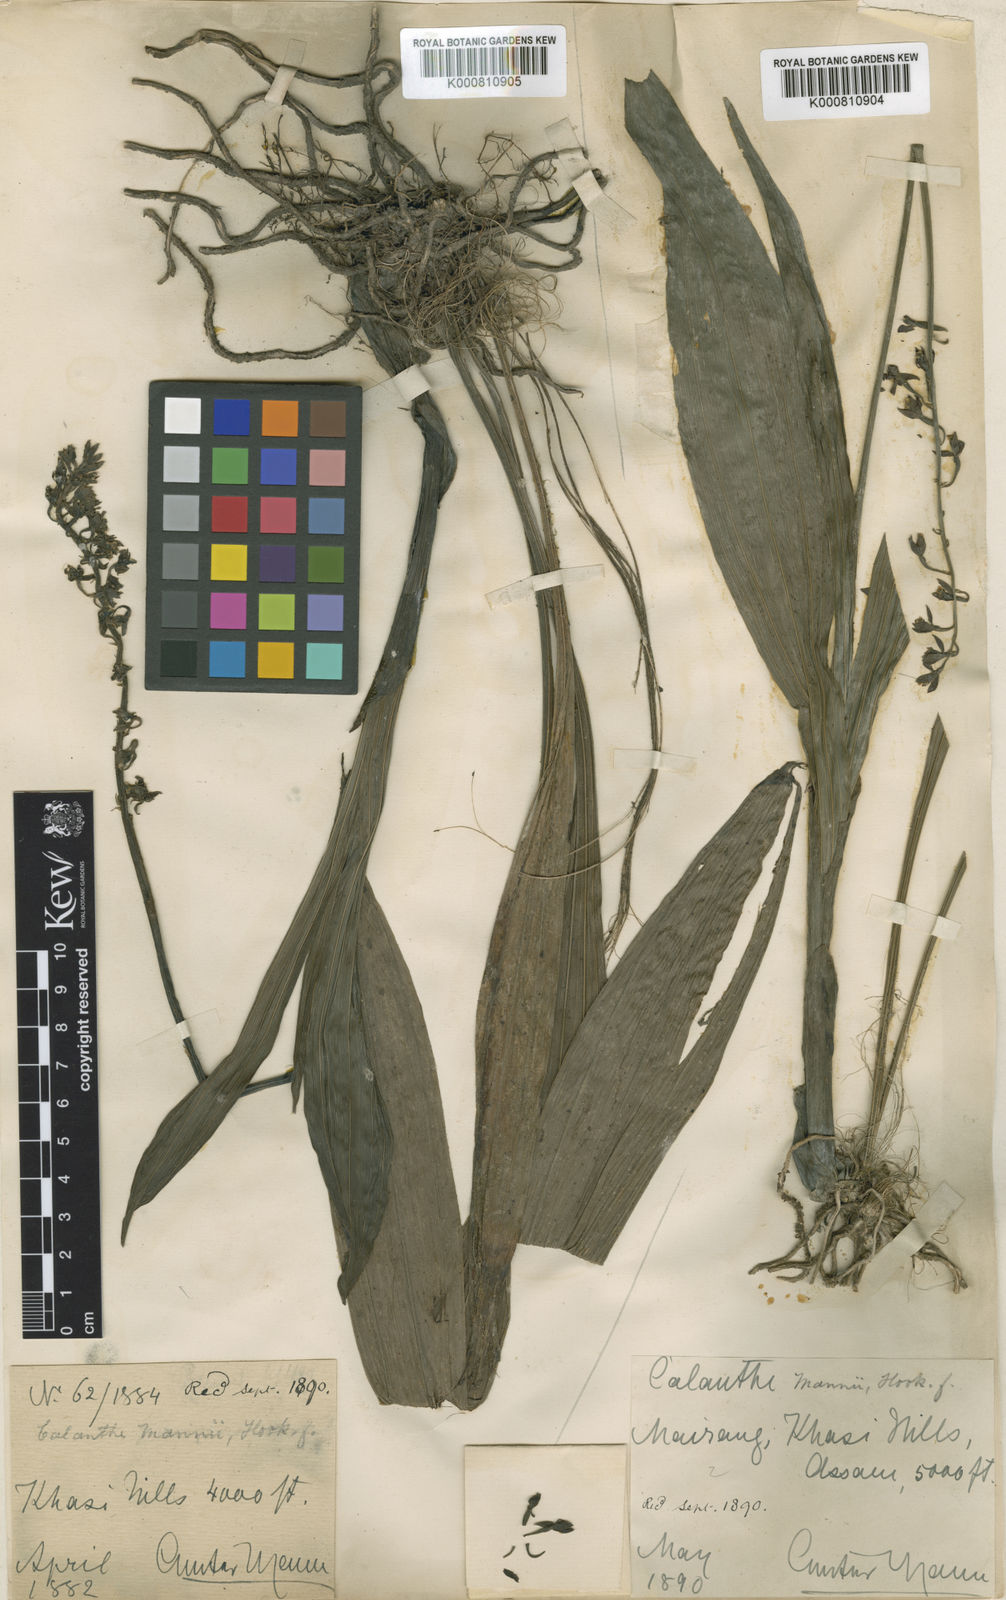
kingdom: Plantae
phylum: Tracheophyta
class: Liliopsida
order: Asparagales
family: Orchidaceae
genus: Calanthe
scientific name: Calanthe mannii
